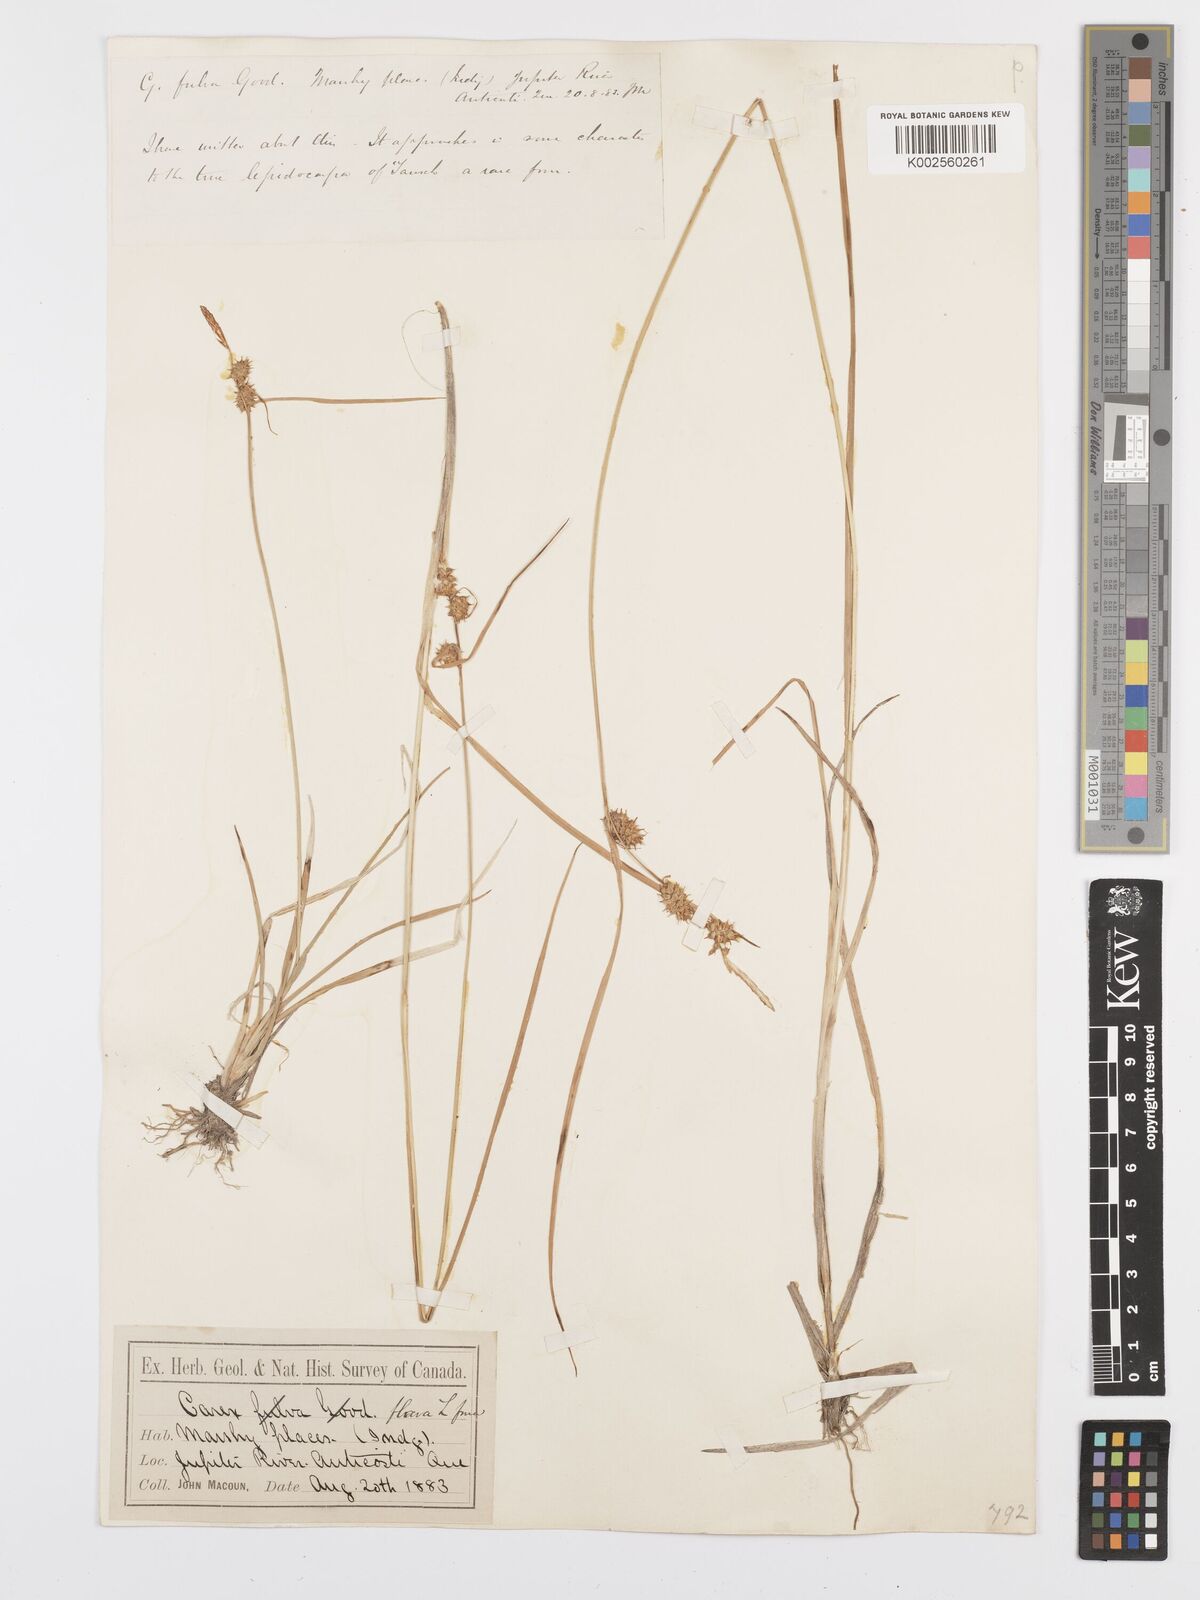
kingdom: Plantae
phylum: Tracheophyta
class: Liliopsida
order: Poales
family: Cyperaceae
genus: Carex
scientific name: Carex flava
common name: Large yellow-sedge
